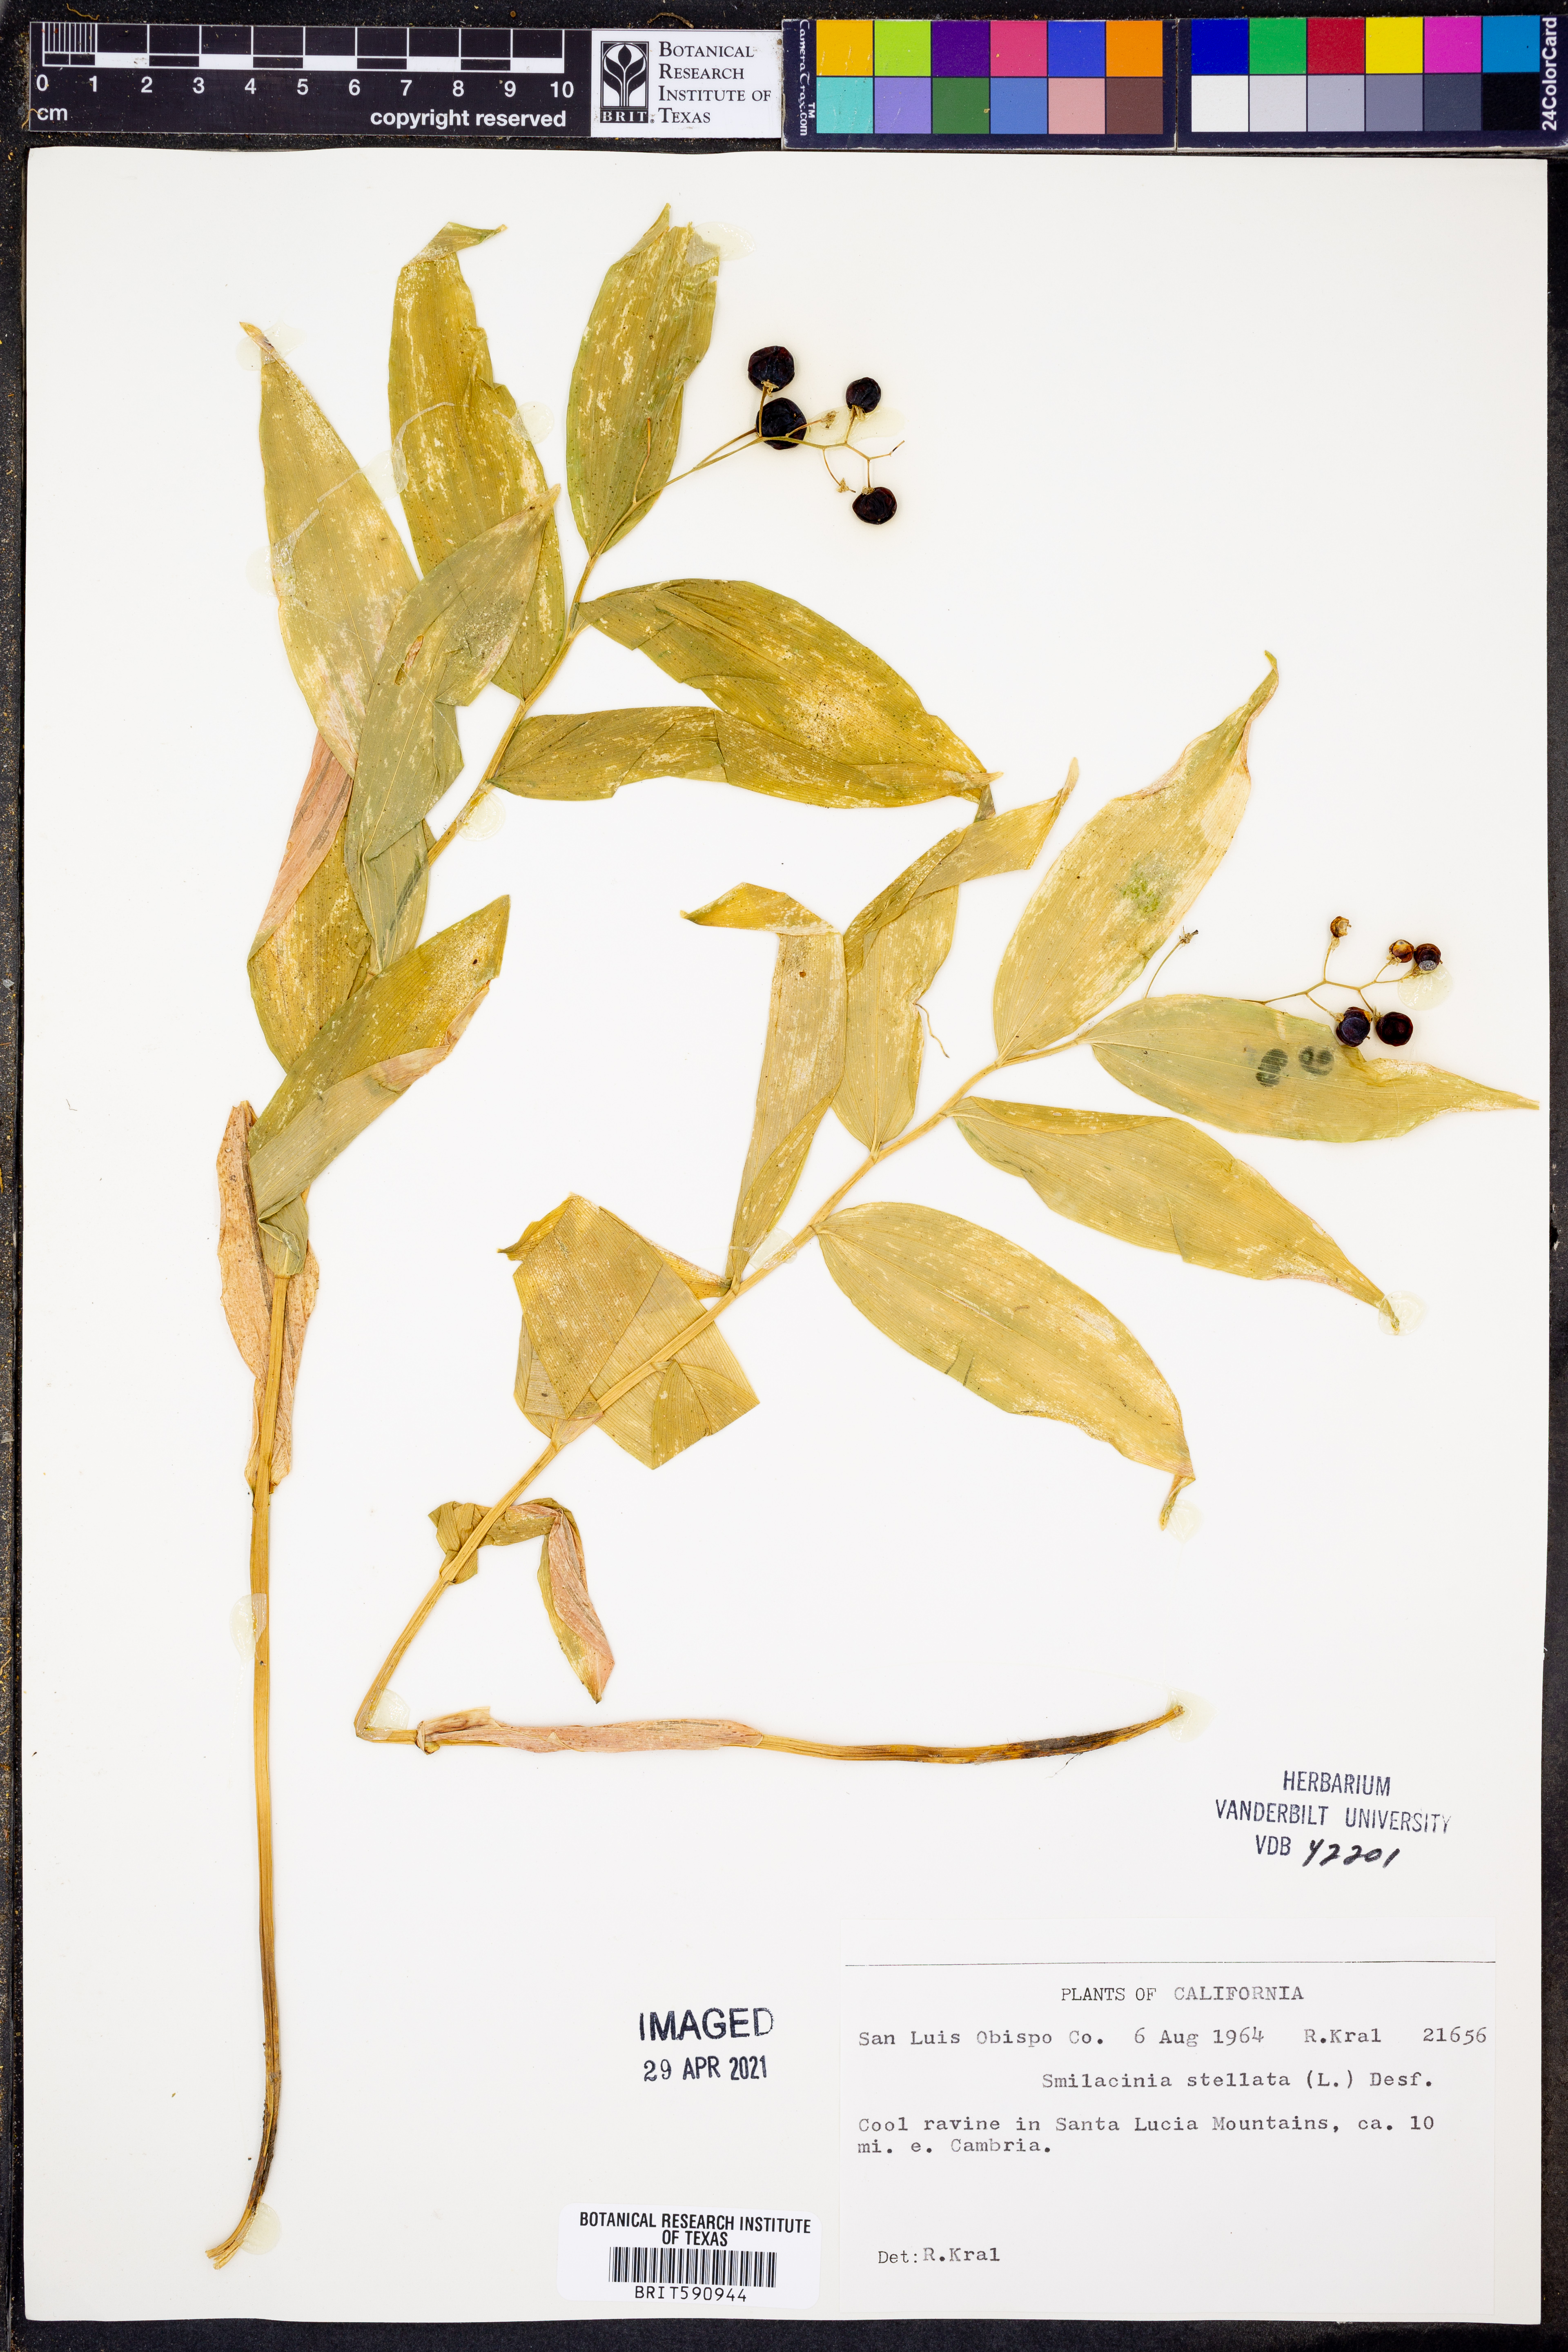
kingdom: Plantae
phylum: Tracheophyta
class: Liliopsida
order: Asparagales
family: Asparagaceae
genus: Maianthemum
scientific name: Maianthemum stellatum
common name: Little false solomon's seal
